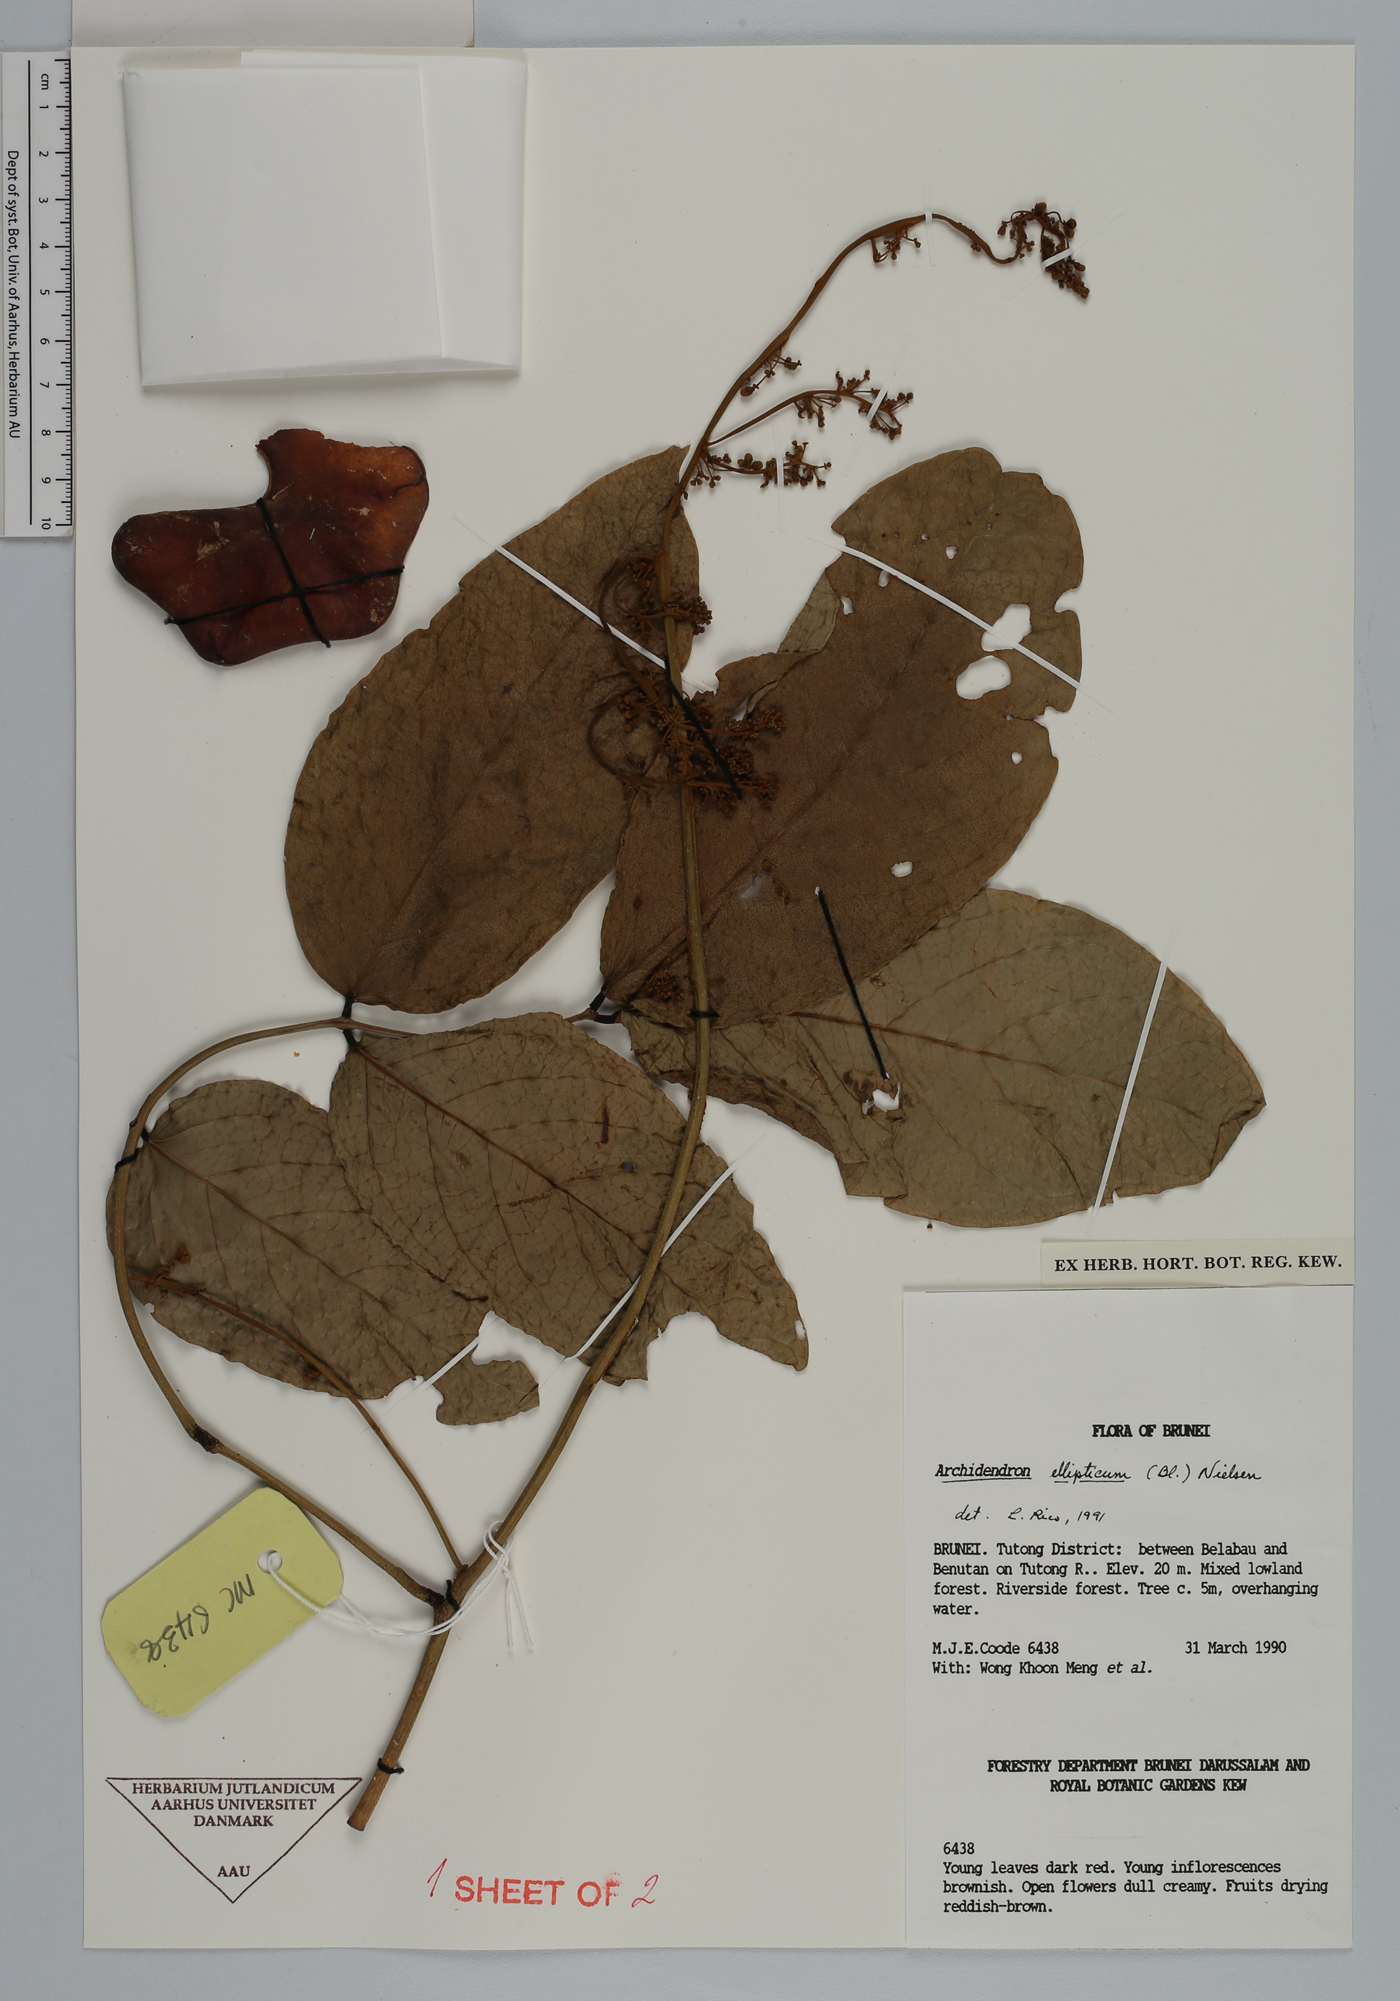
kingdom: Plantae
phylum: Tracheophyta
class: Magnoliopsida
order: Fabales
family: Fabaceae
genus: Archidendron
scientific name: Archidendron ellipticum
